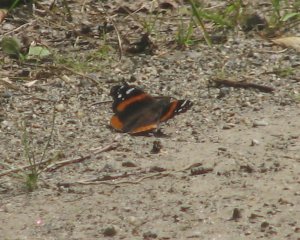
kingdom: Animalia
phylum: Arthropoda
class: Insecta
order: Lepidoptera
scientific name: Lepidoptera
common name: Butterflies
